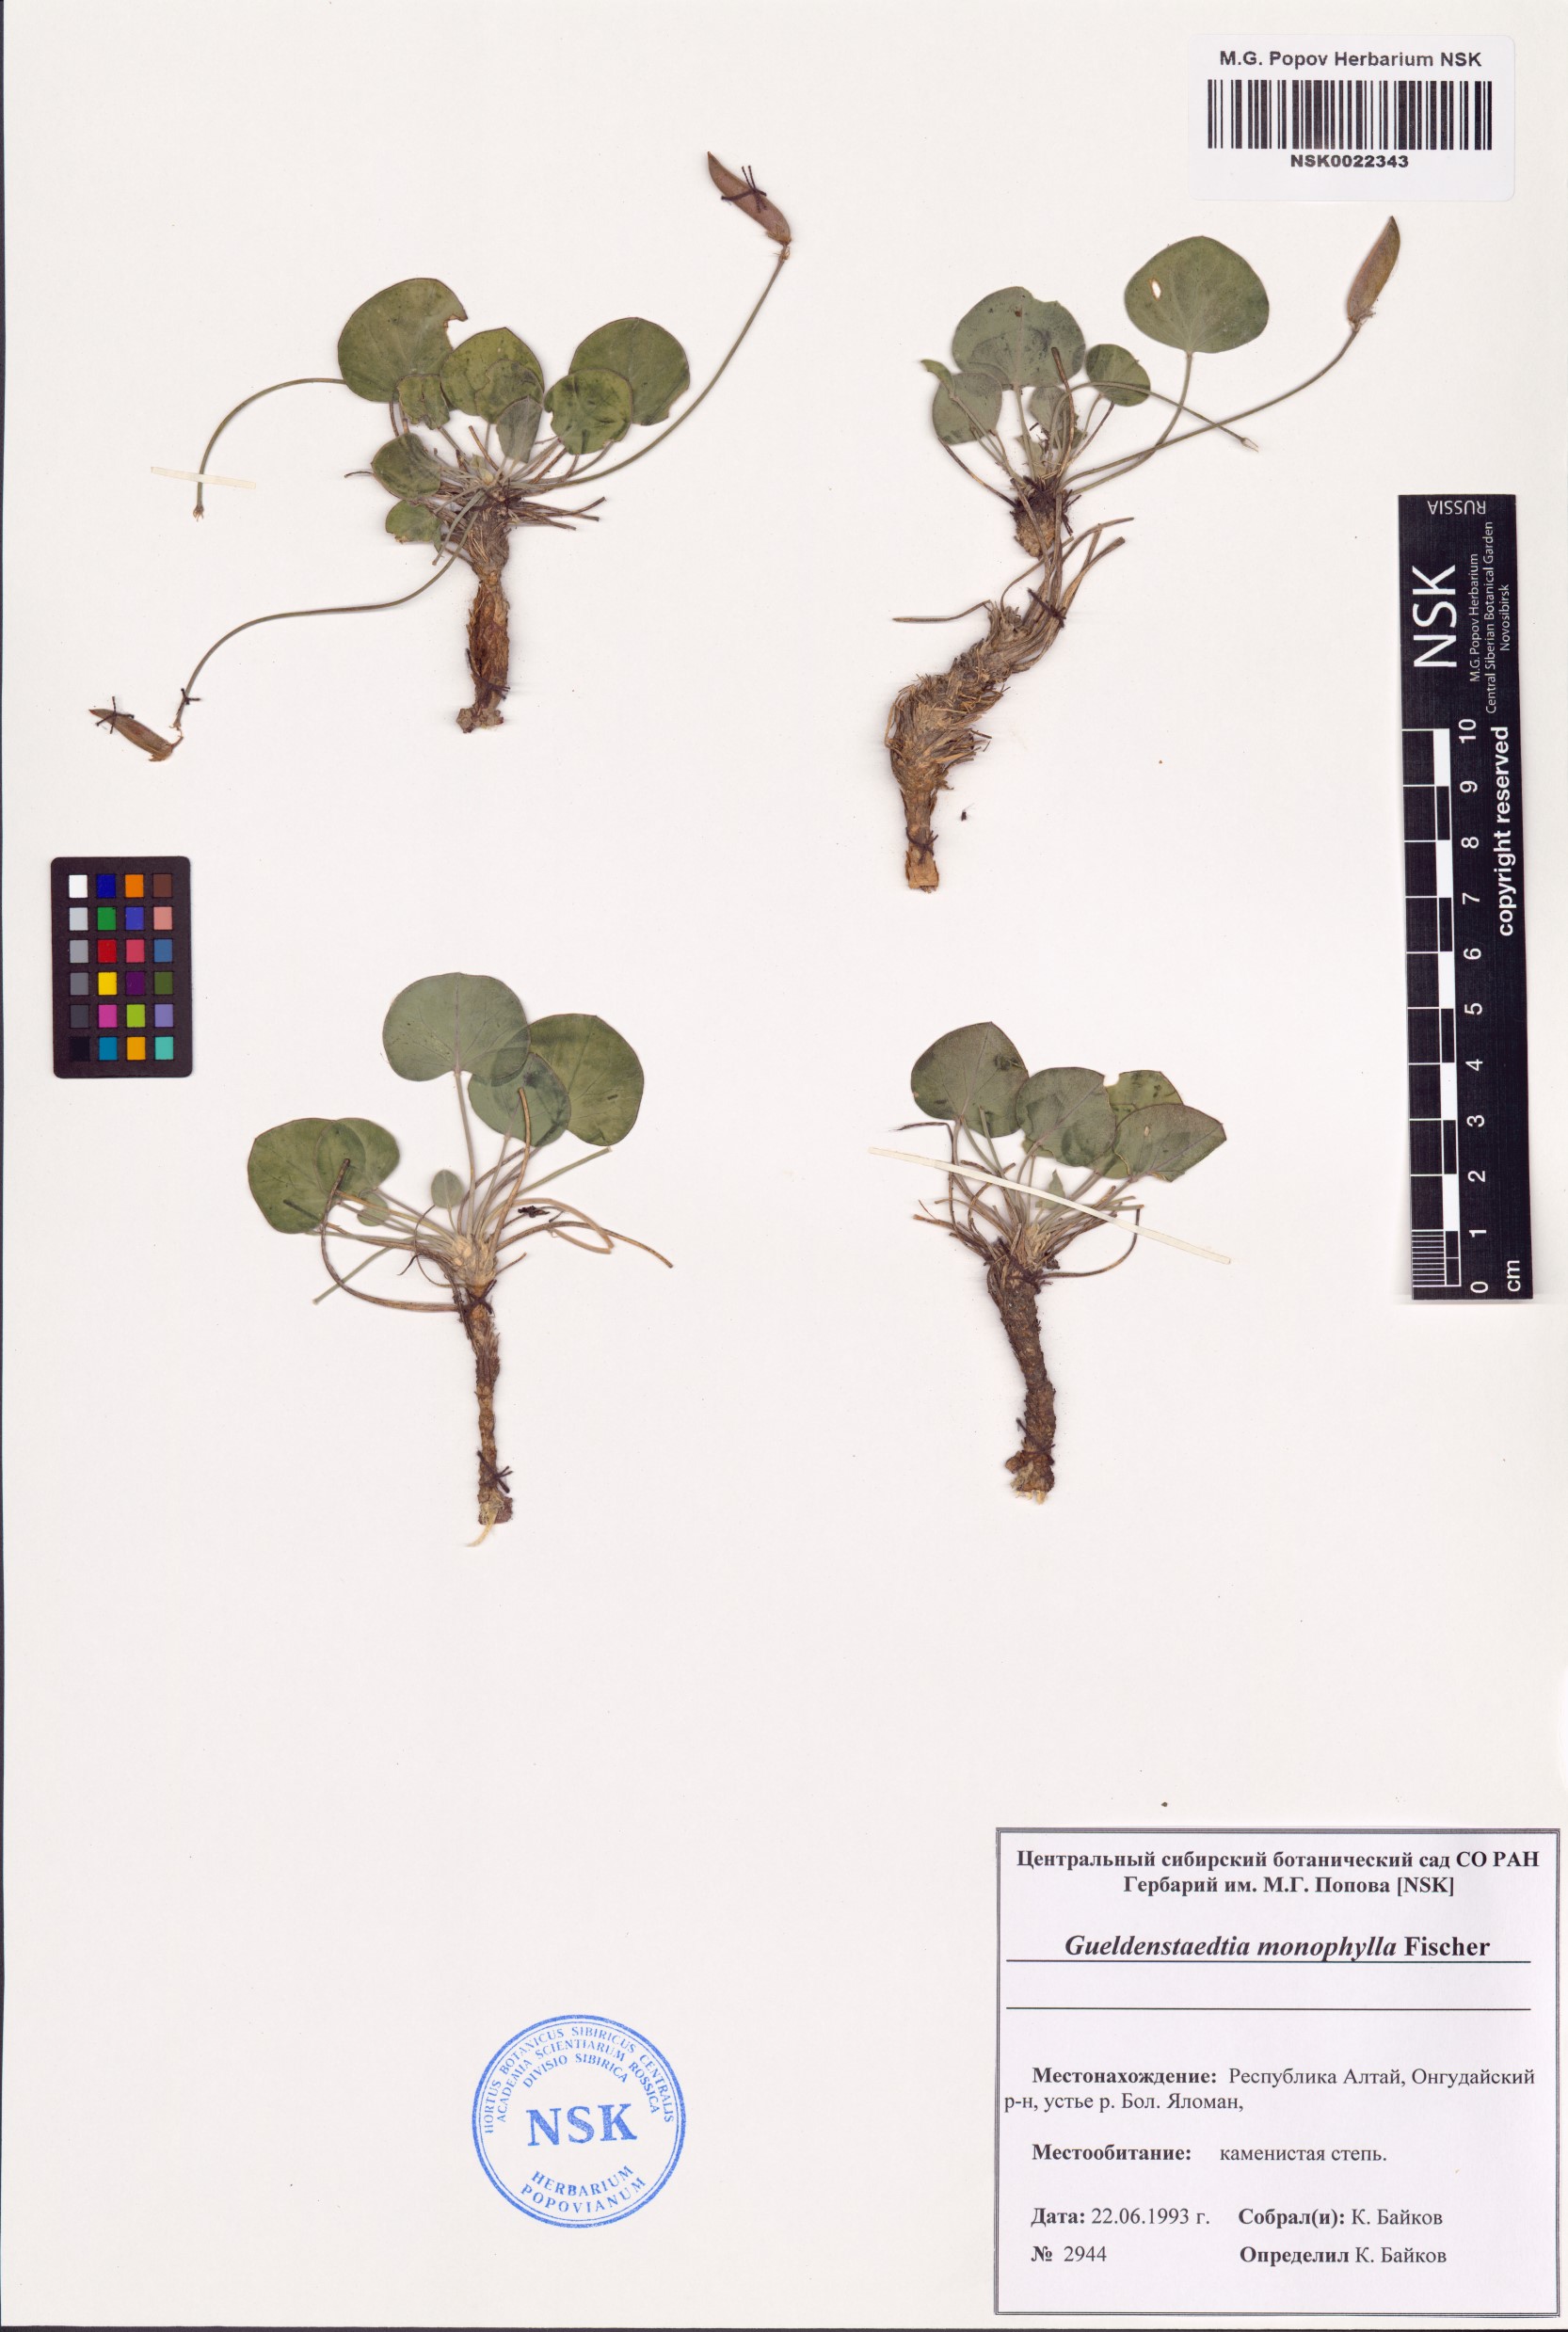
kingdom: Plantae
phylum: Tracheophyta
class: Magnoliopsida
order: Fabales
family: Fabaceae
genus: Gueldenstaedtia
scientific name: Gueldenstaedtia monophylla
